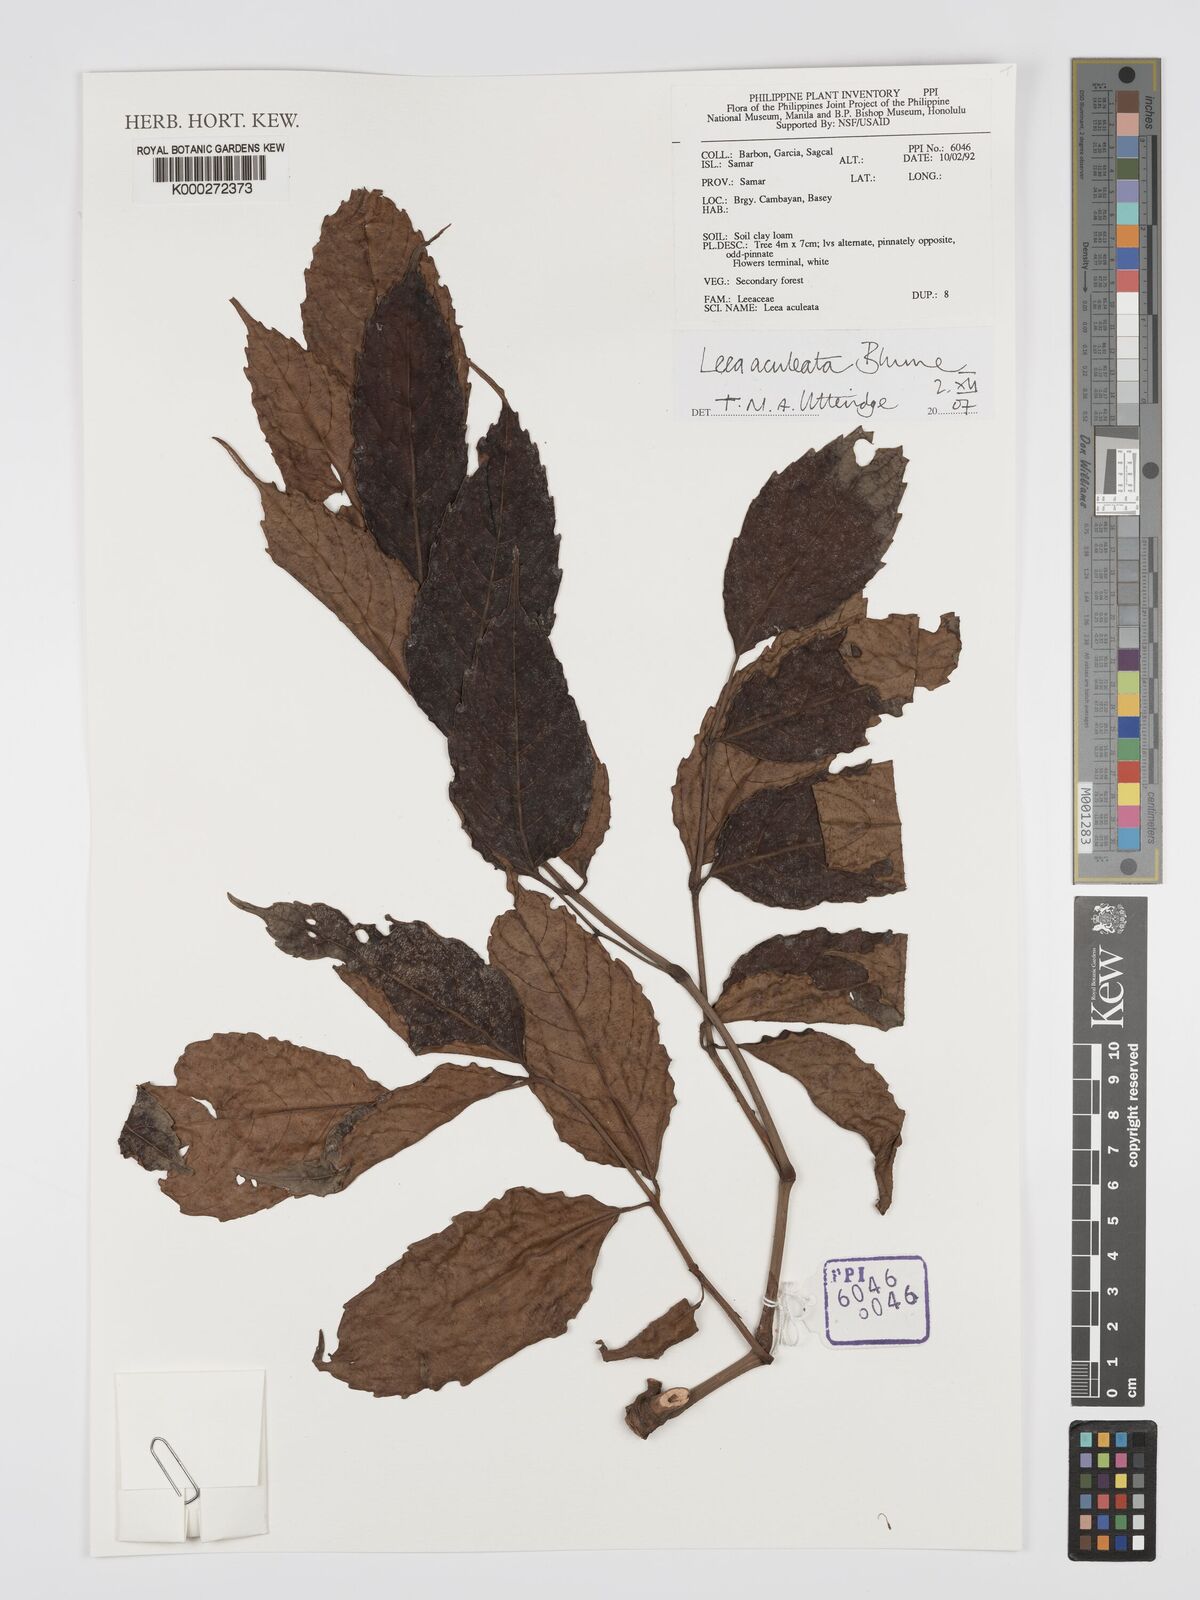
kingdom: Plantae
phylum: Tracheophyta
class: Magnoliopsida
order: Vitales
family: Vitaceae
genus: Leea
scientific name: Leea aculeata
